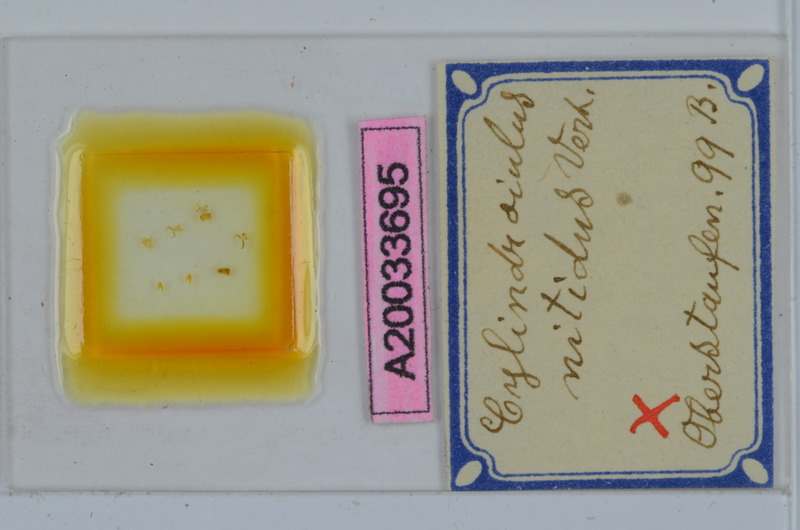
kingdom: Animalia
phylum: Arthropoda
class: Diplopoda
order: Julida
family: Julidae
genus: Allajulus
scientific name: Allajulus nitidus
